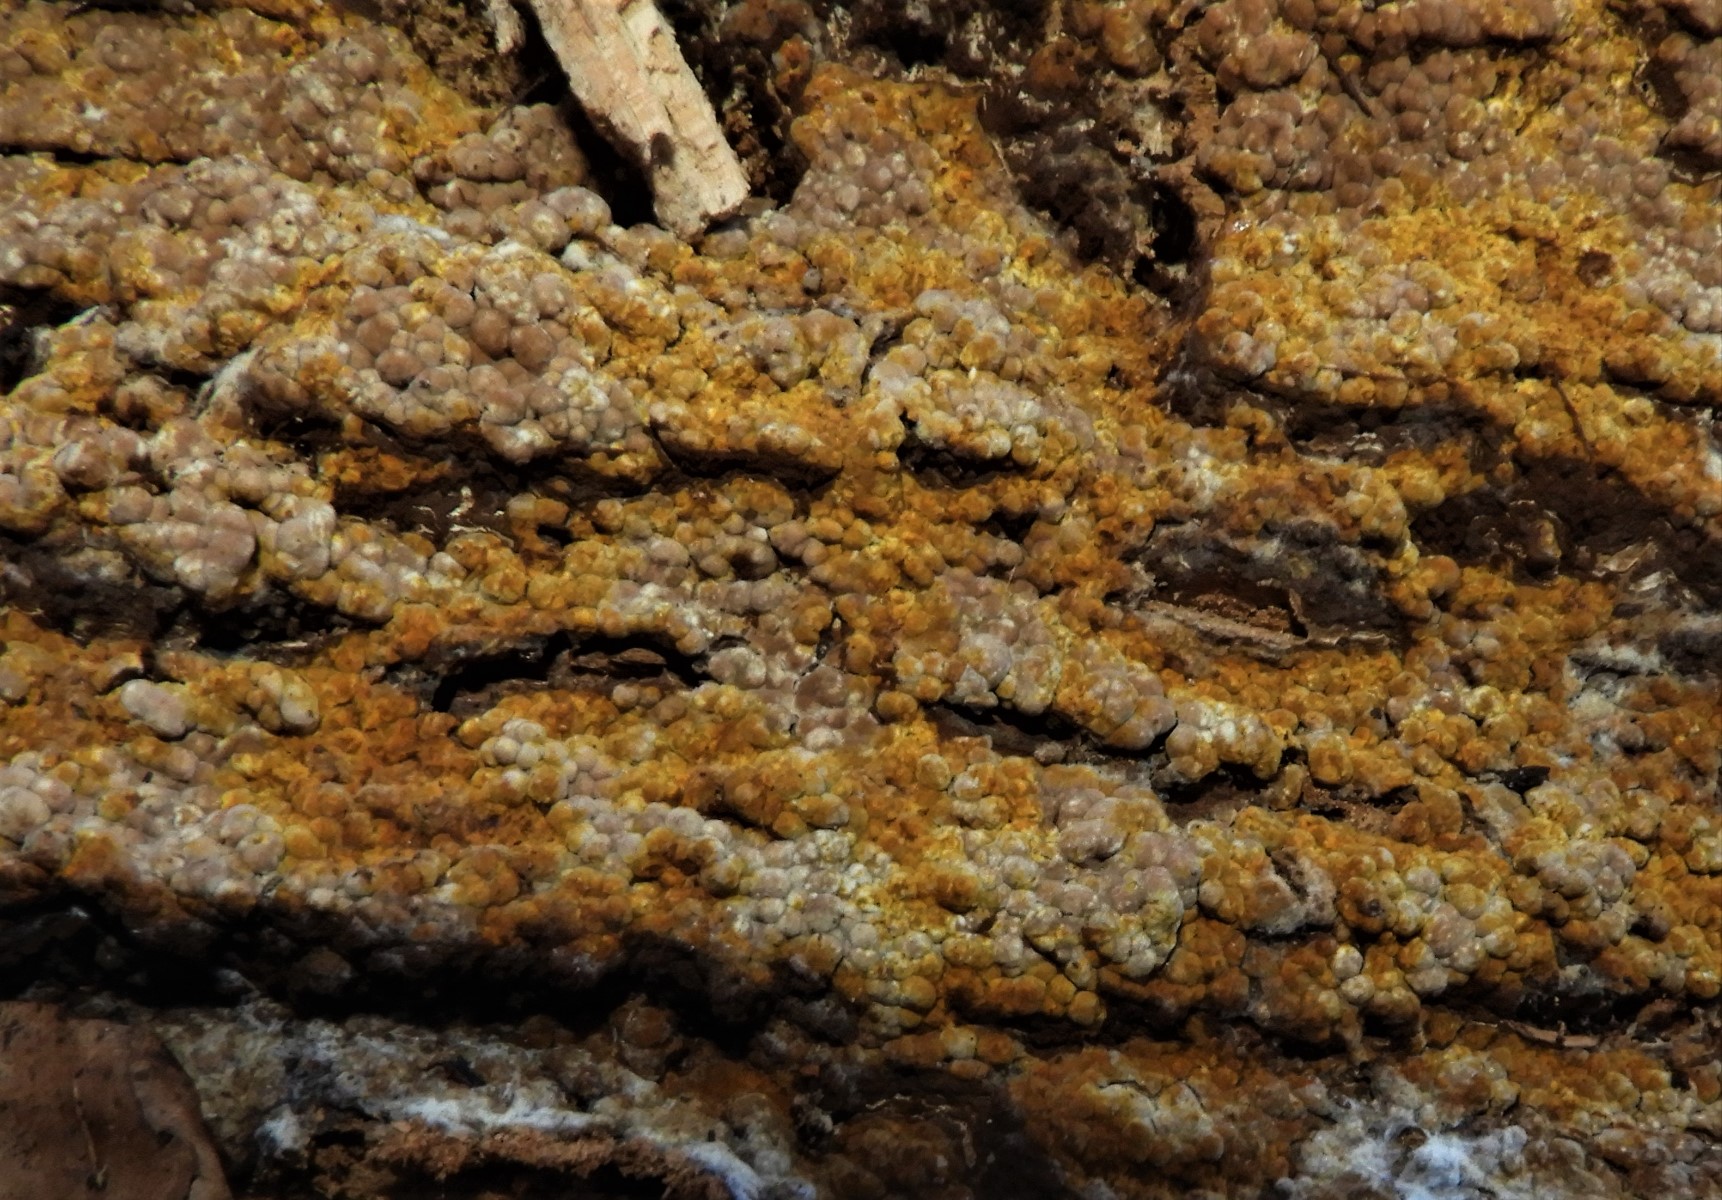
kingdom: Fungi
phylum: Basidiomycota
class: Agaricomycetes
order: Boletales
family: Coniophoraceae
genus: Coniophora
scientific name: Coniophora puteana
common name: gul tømmersvamp
